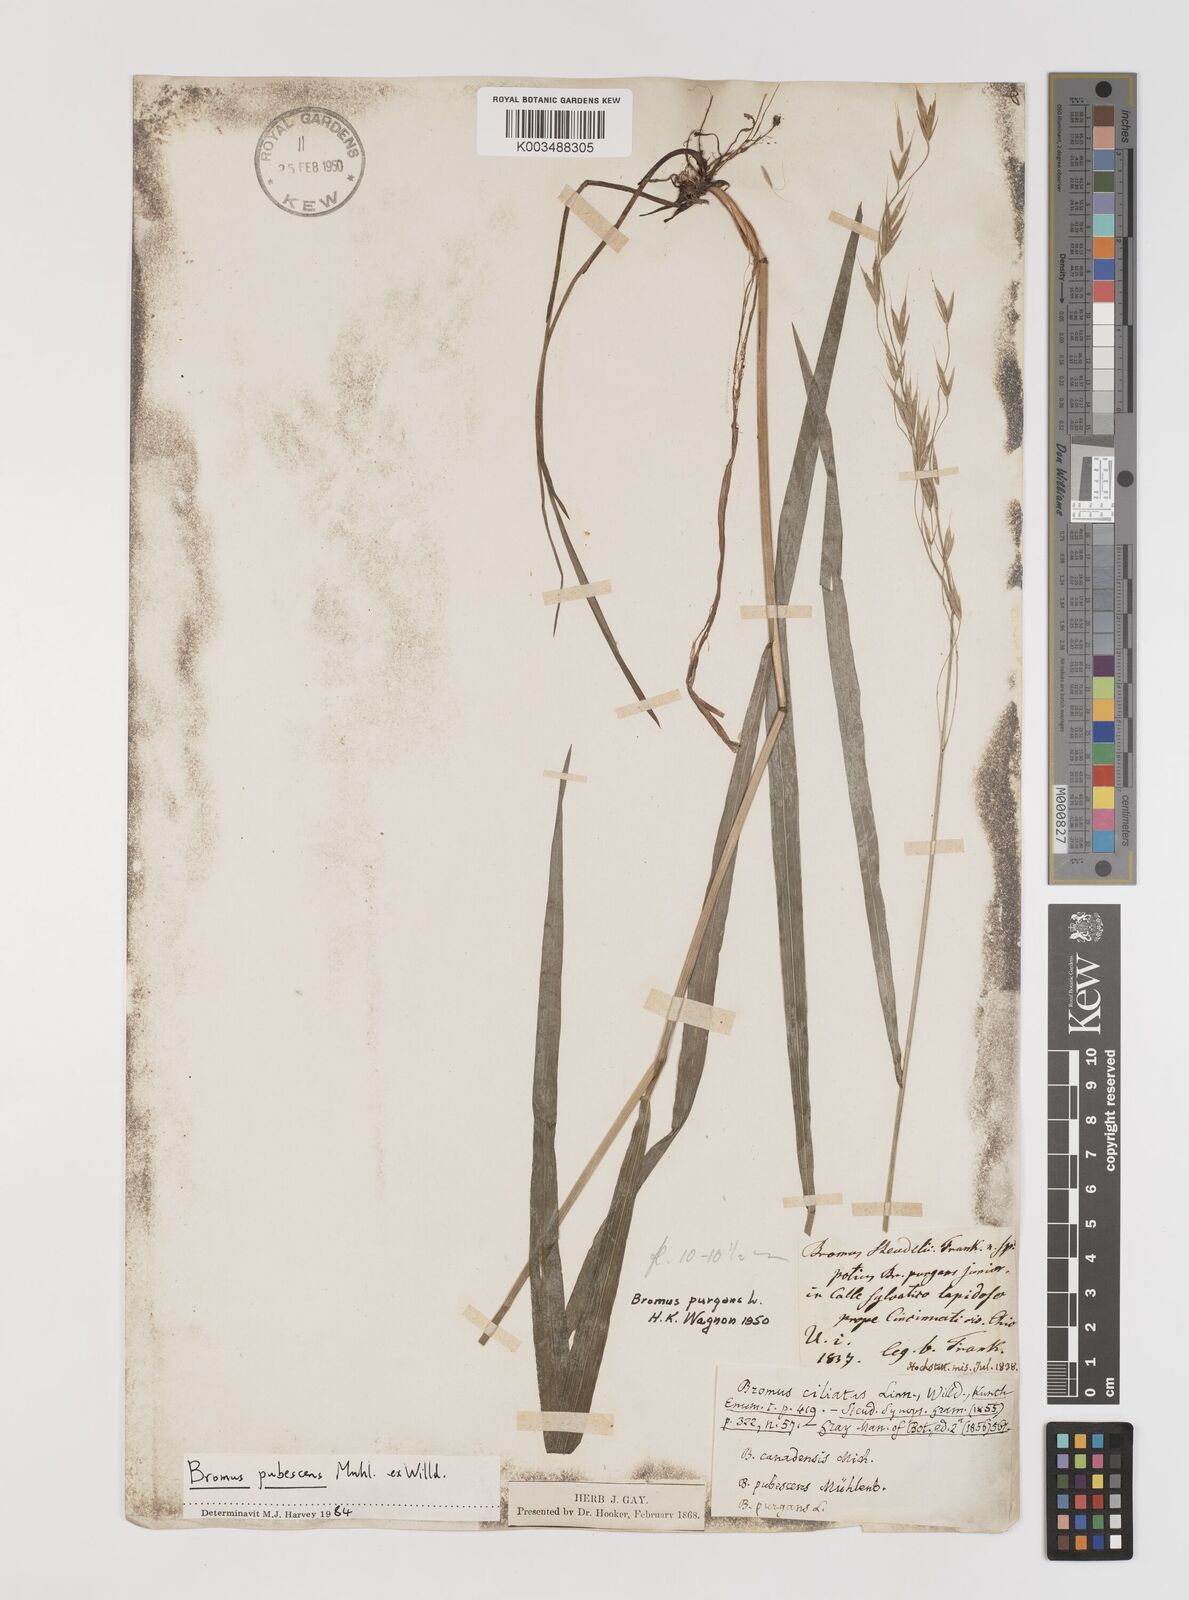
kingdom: Plantae
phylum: Tracheophyta
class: Liliopsida
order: Poales
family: Poaceae
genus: Bromus
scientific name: Bromus pubescens
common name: Hairy wood brome grass
